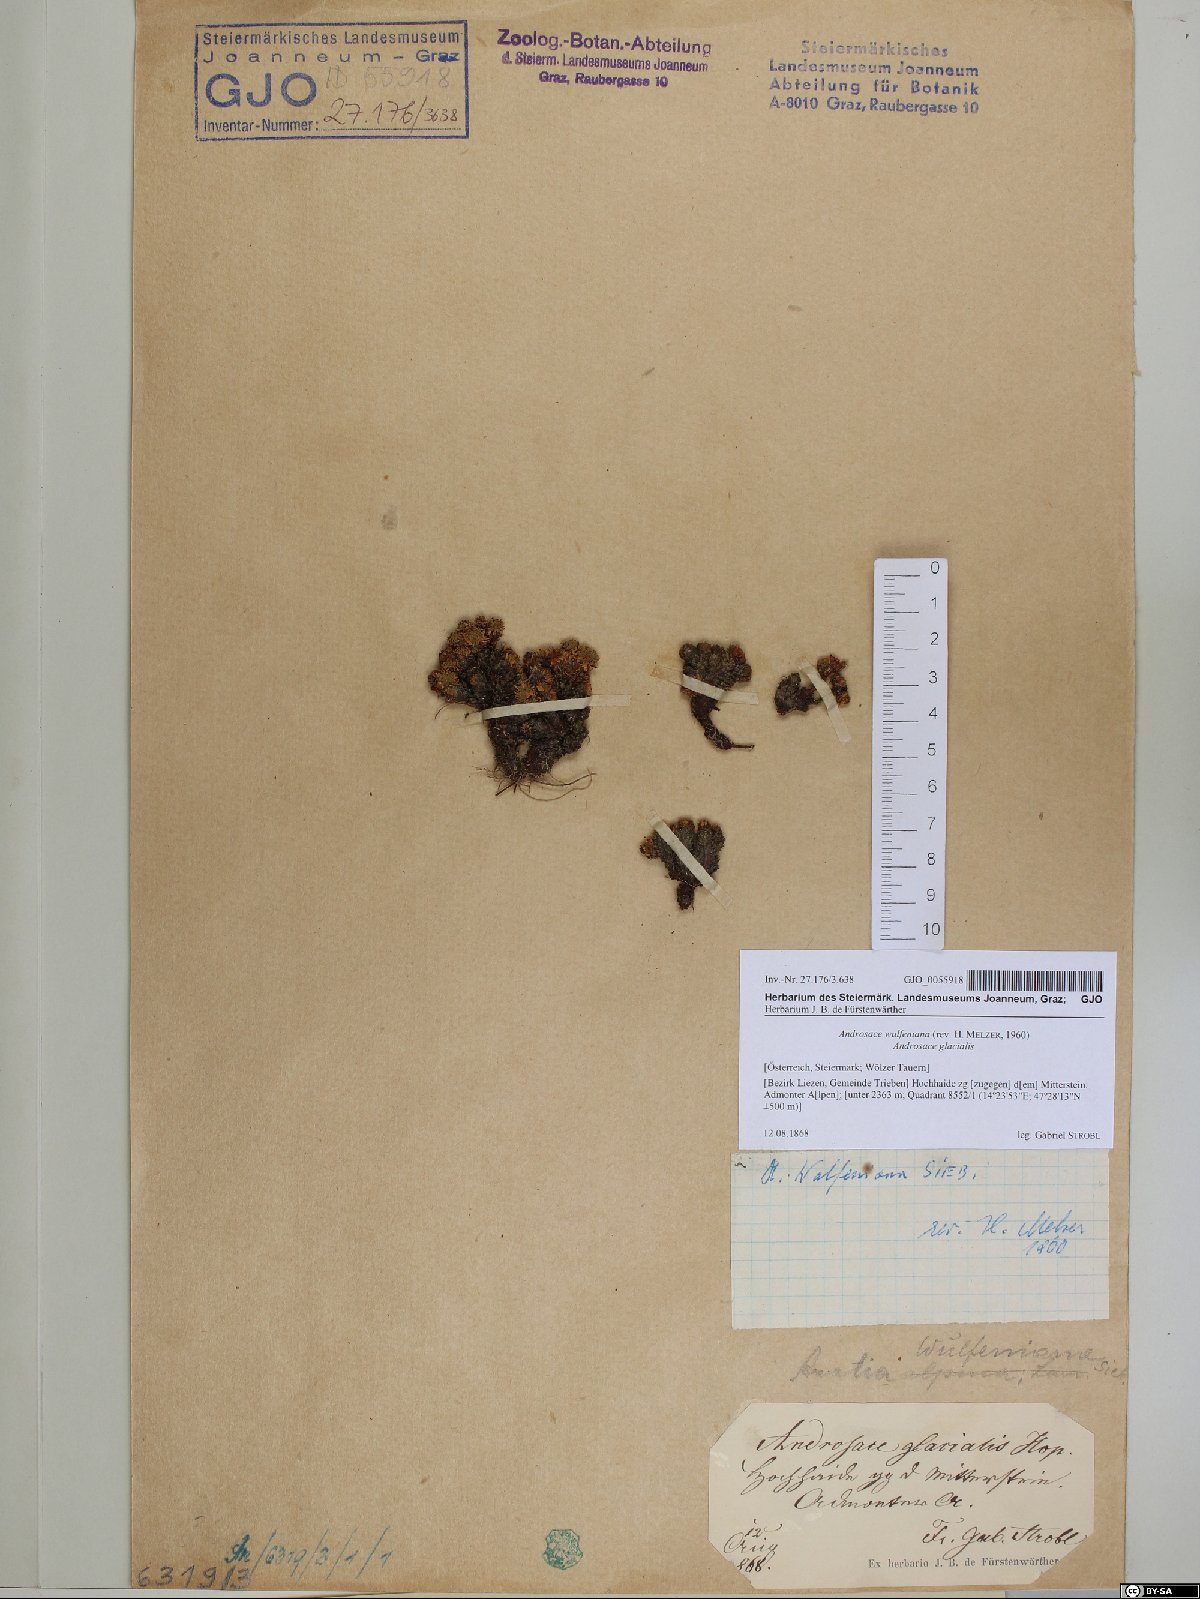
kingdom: Plantae
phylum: Tracheophyta
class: Magnoliopsida
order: Ericales
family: Primulaceae
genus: Androsace
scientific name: Androsace wulfeniana
